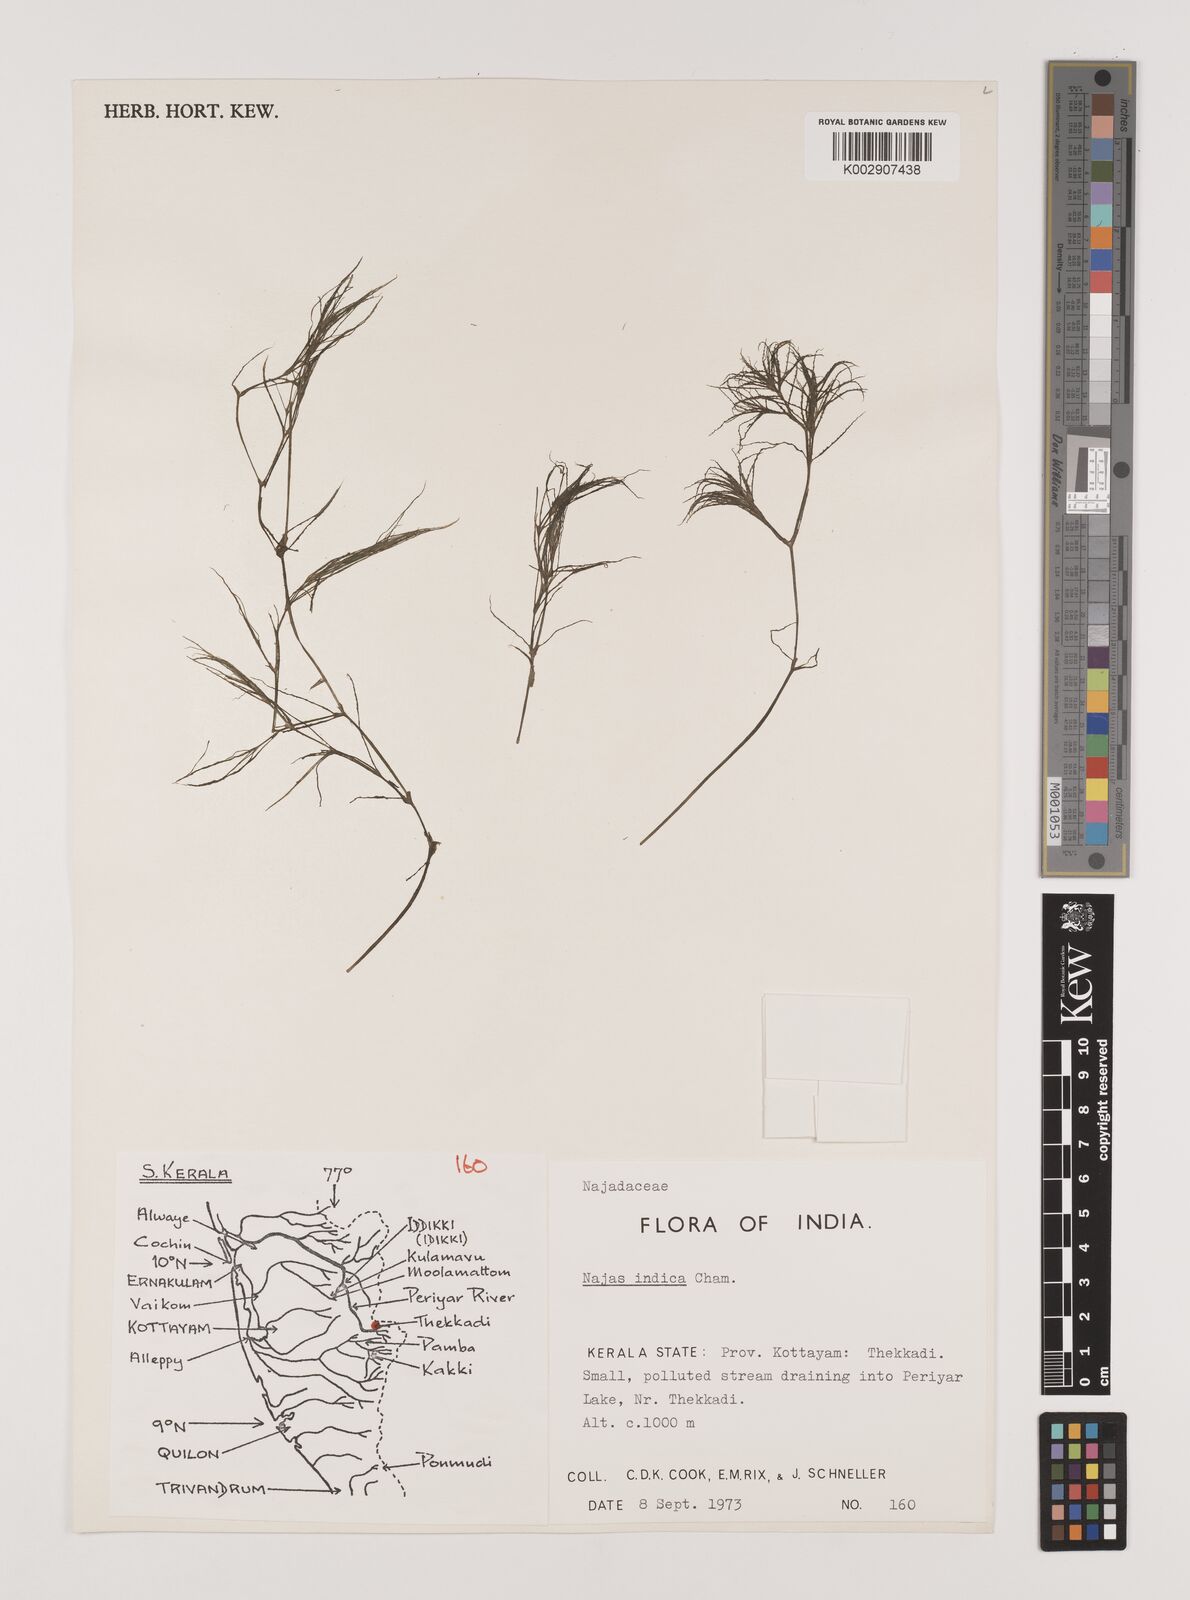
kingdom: Plantae
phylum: Tracheophyta
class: Liliopsida
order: Alismatales
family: Hydrocharitaceae
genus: Najas
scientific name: Najas indica
